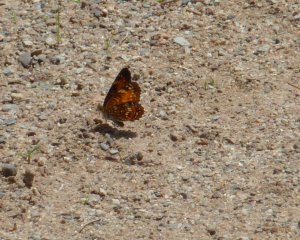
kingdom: Animalia
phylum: Arthropoda
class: Insecta
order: Lepidoptera
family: Nymphalidae
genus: Chlosyne
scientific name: Chlosyne harrisii
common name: Harris's Checkerspot
